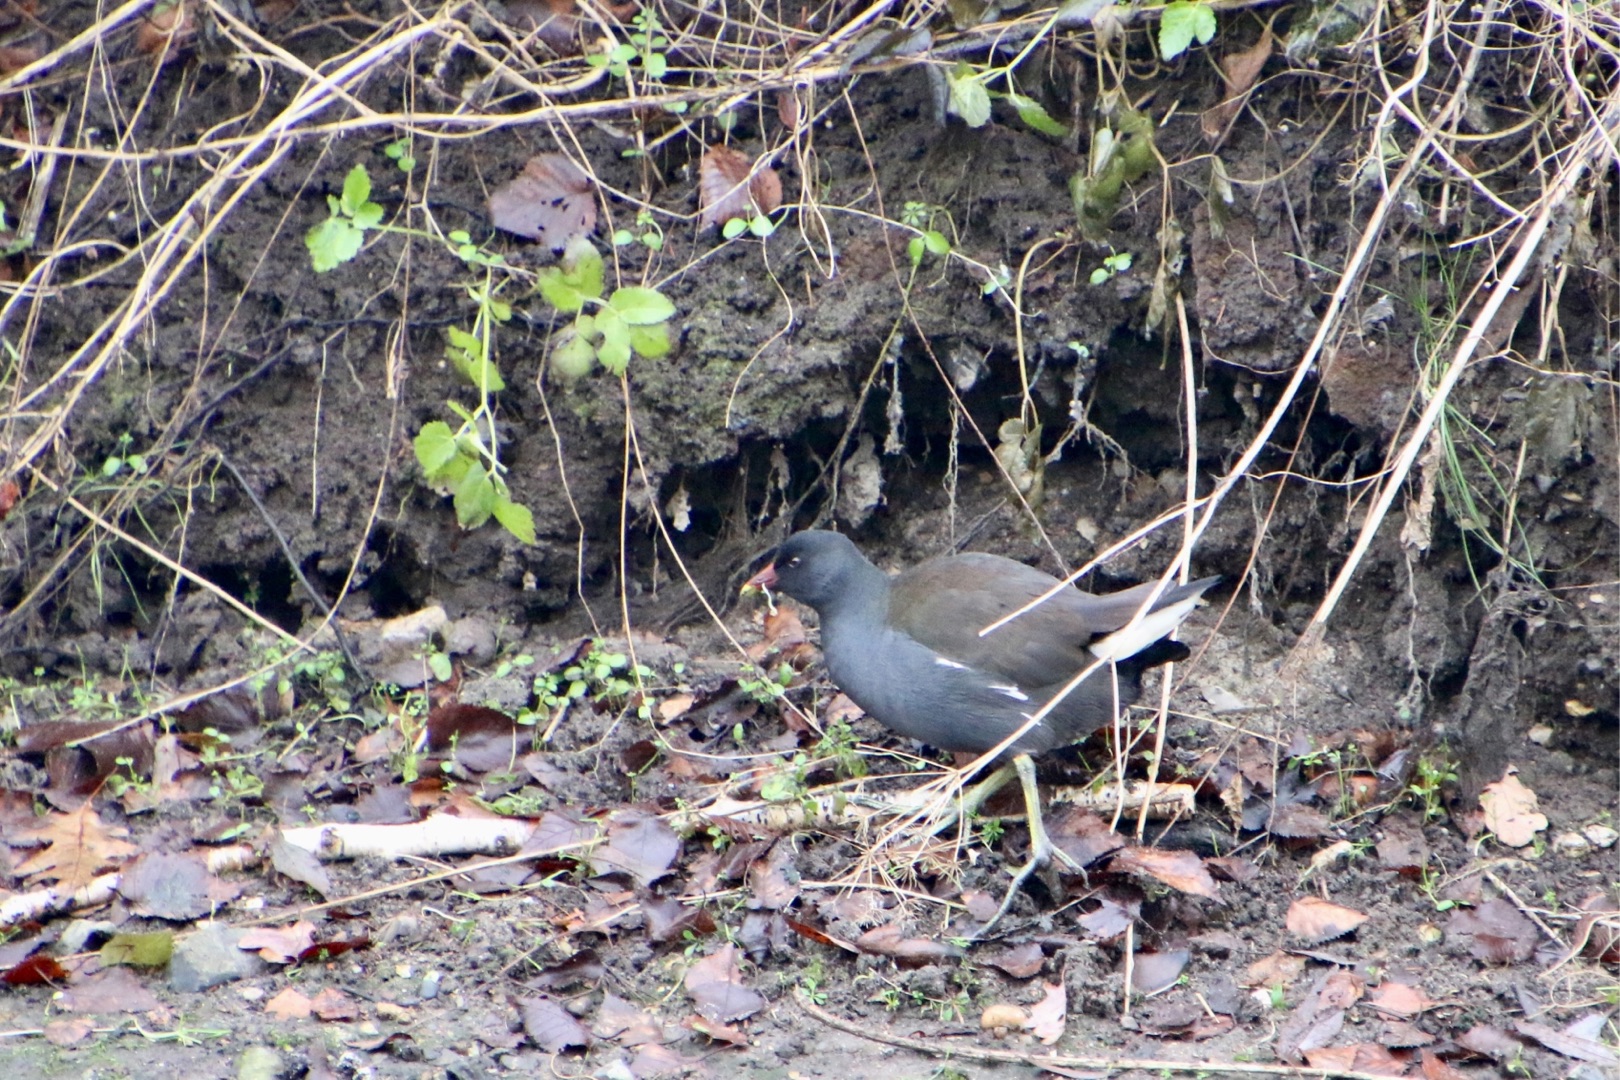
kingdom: Animalia
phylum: Chordata
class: Aves
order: Gruiformes
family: Rallidae
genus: Gallinula
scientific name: Gallinula chloropus
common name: Grønbenet rørhøne
